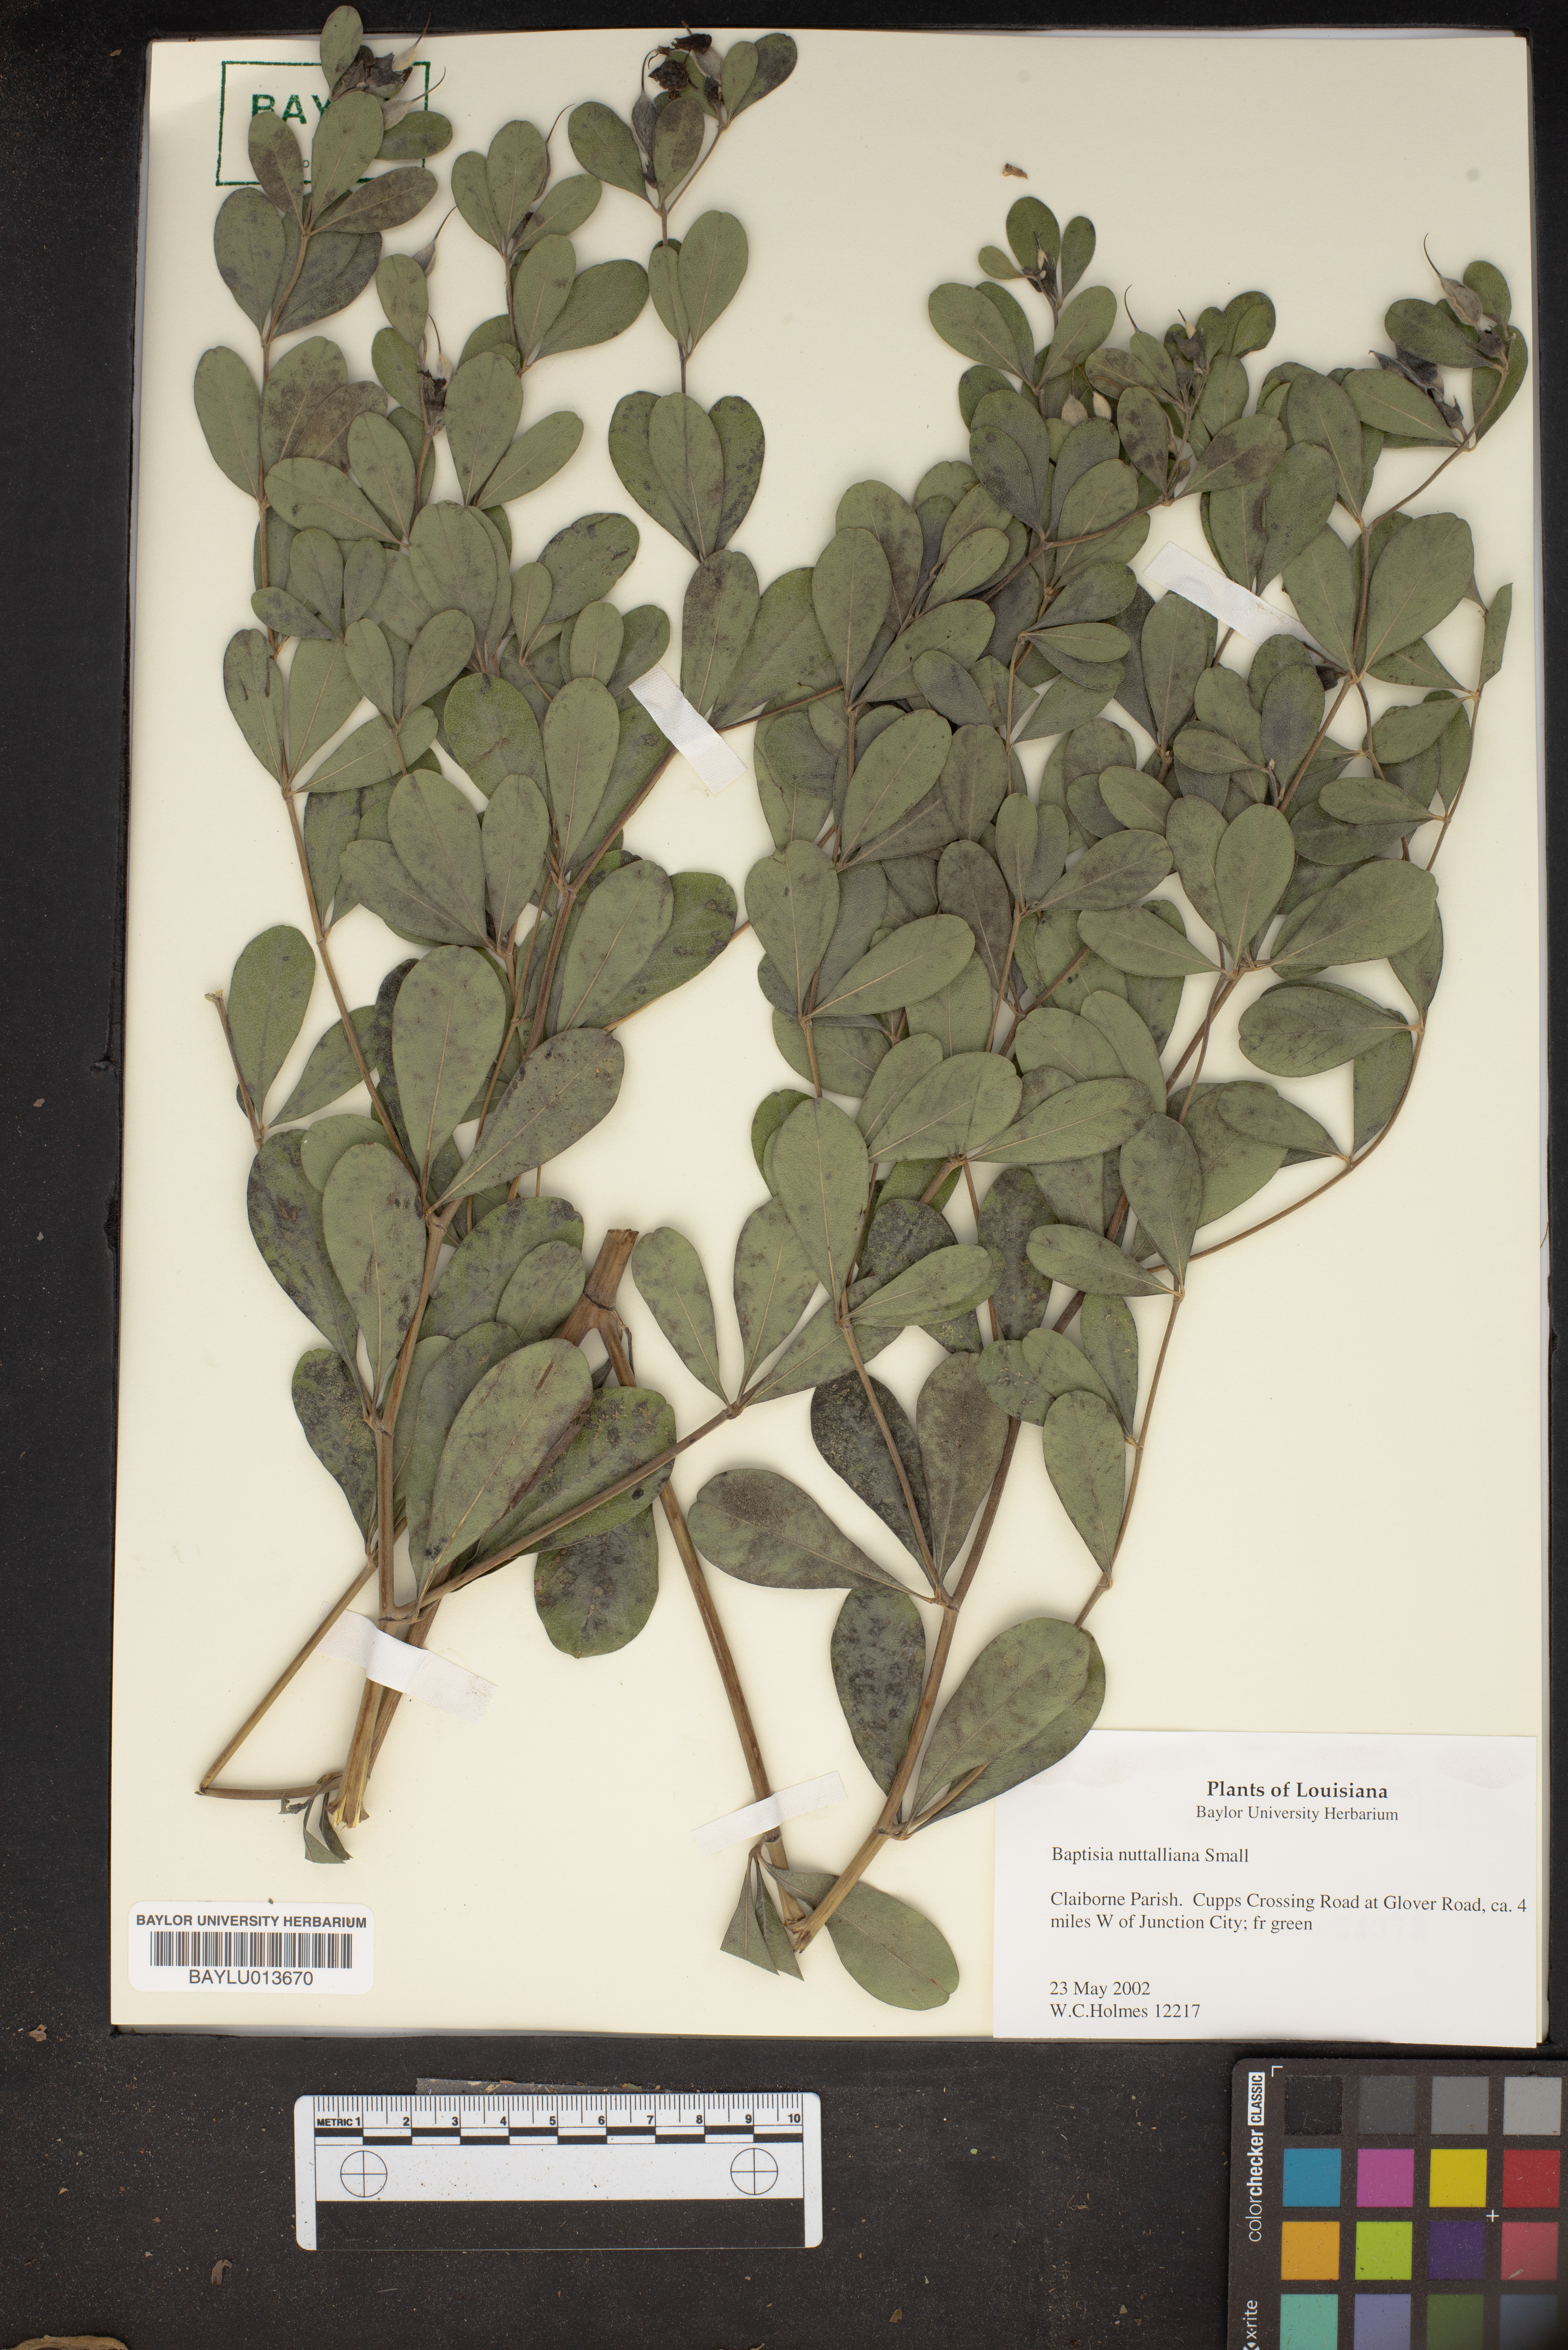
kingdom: Plantae
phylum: Tracheophyta
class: Magnoliopsida
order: Fabales
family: Fabaceae
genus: Baptisia
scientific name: Baptisia nuttalliana
